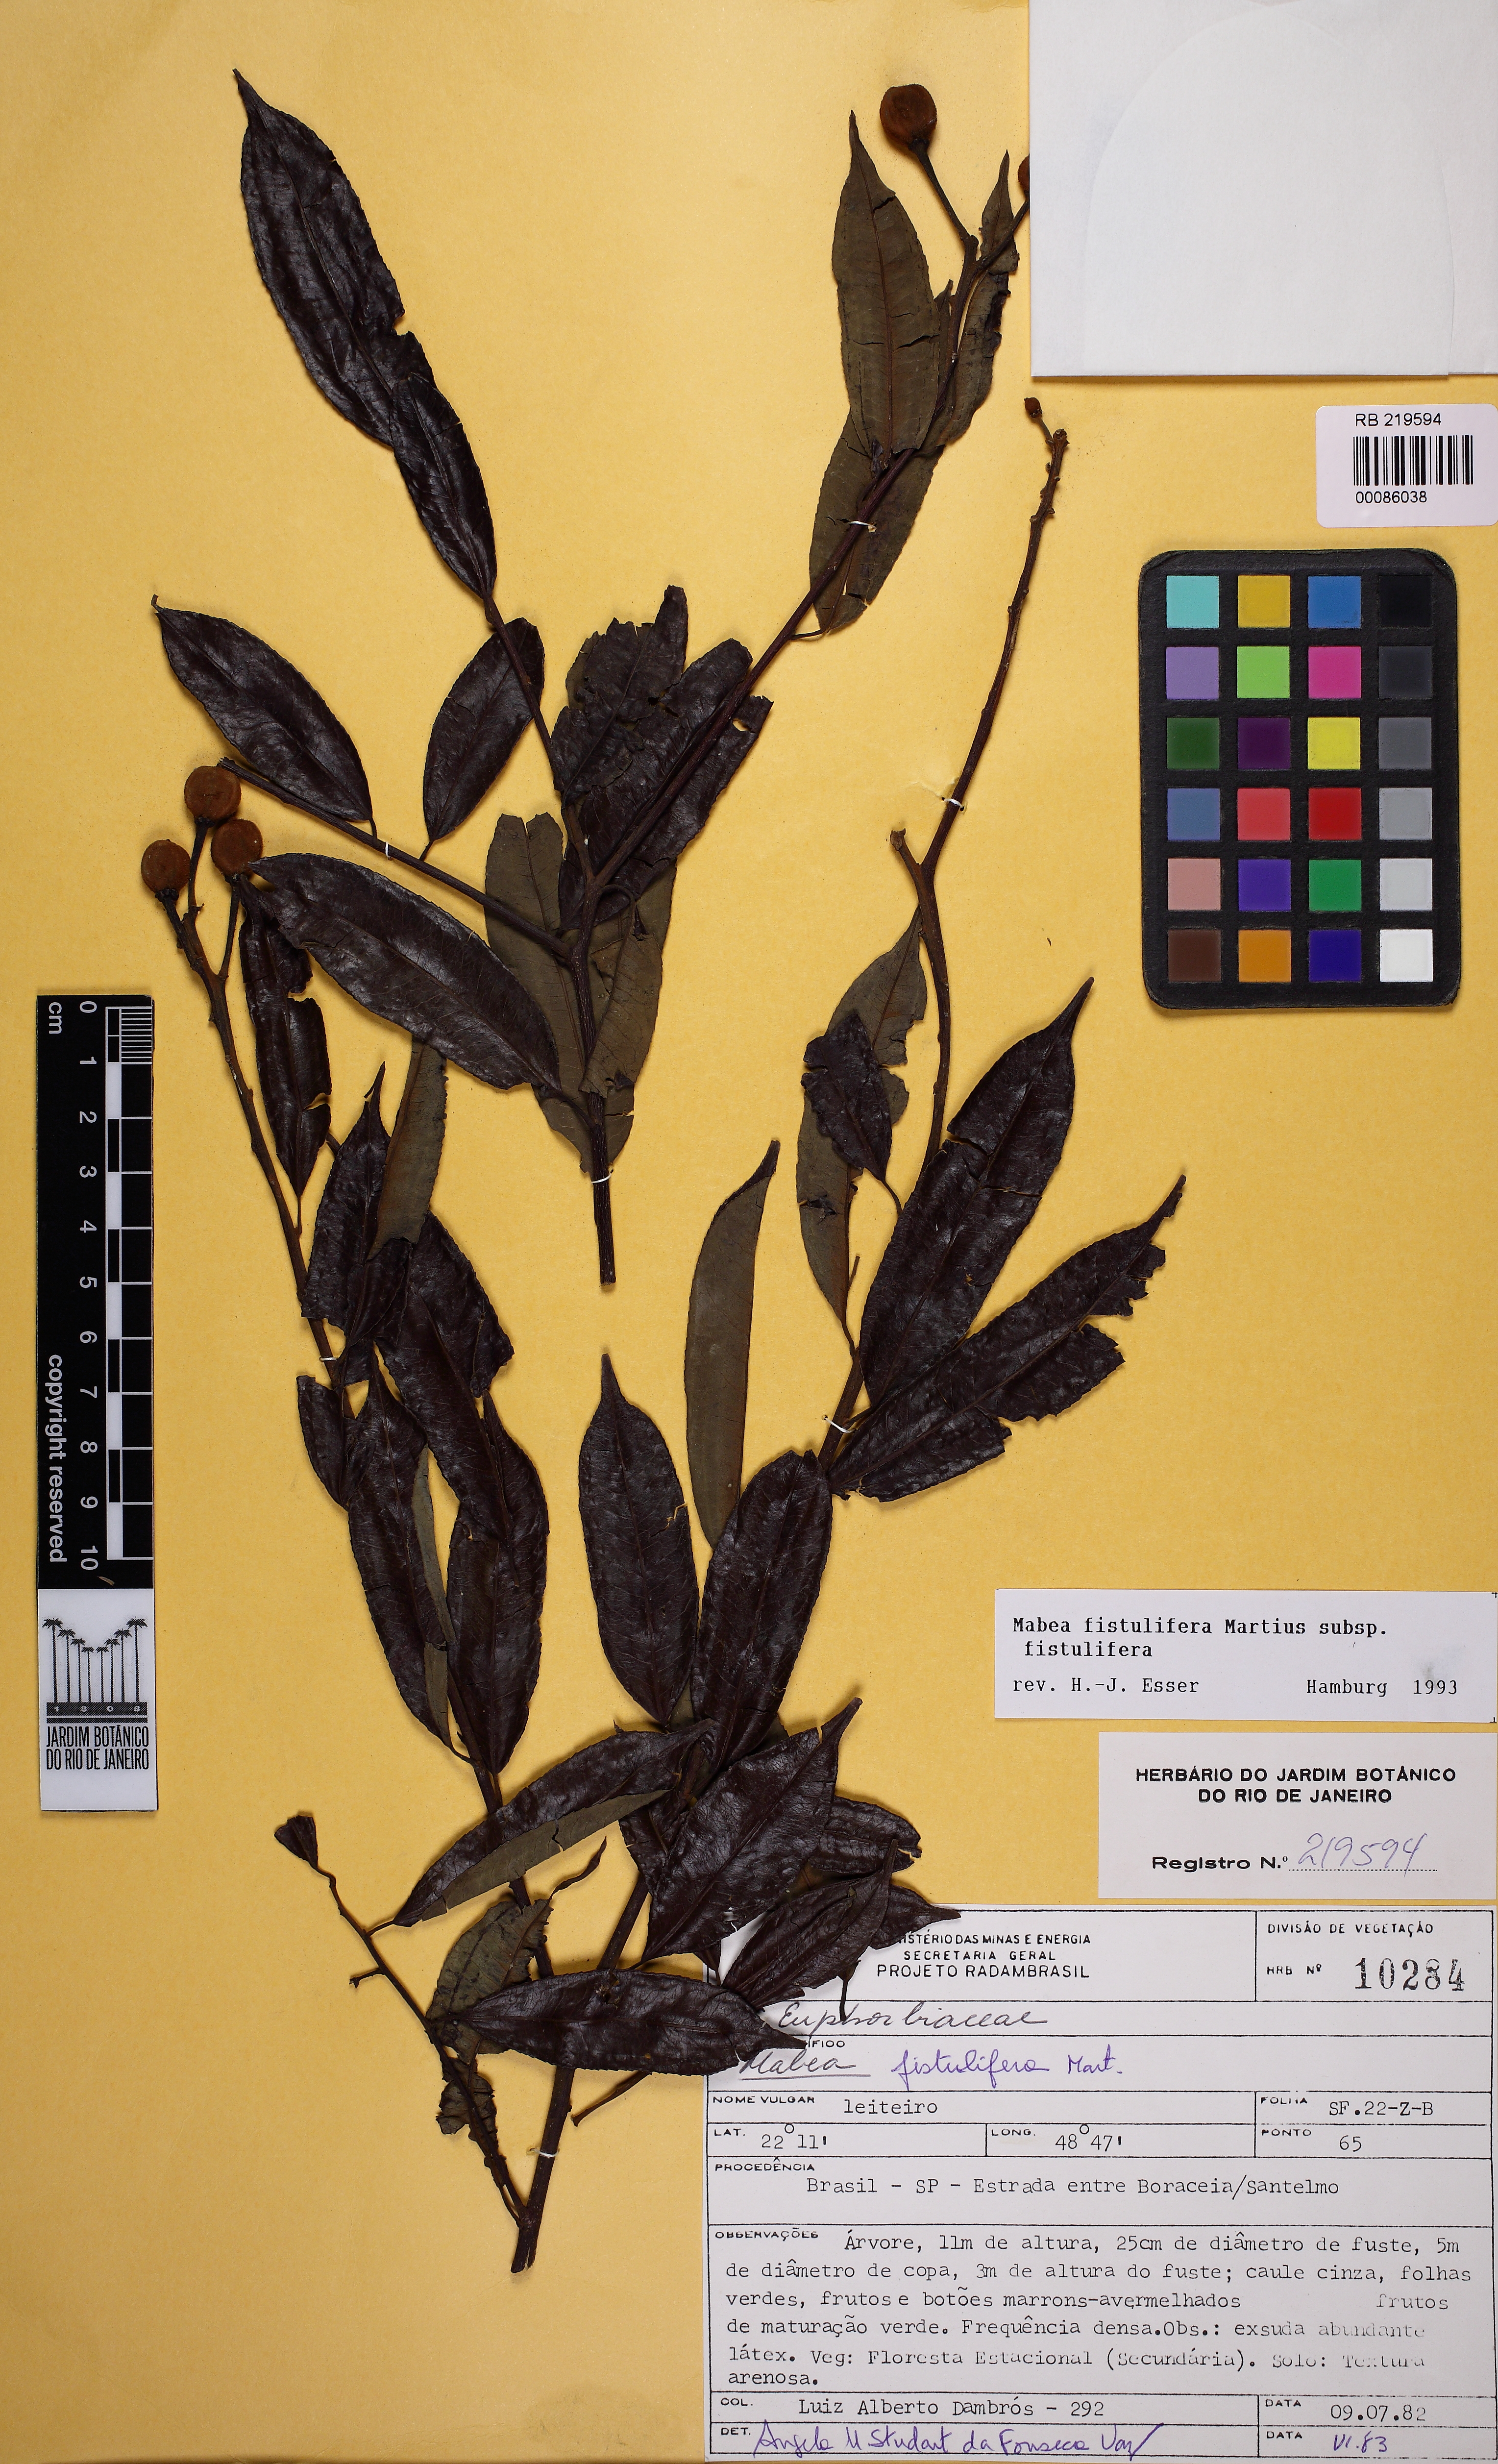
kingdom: Plantae
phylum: Tracheophyta
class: Magnoliopsida
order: Malpighiales
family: Euphorbiaceae
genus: Mabea
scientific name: Mabea fistulifera
